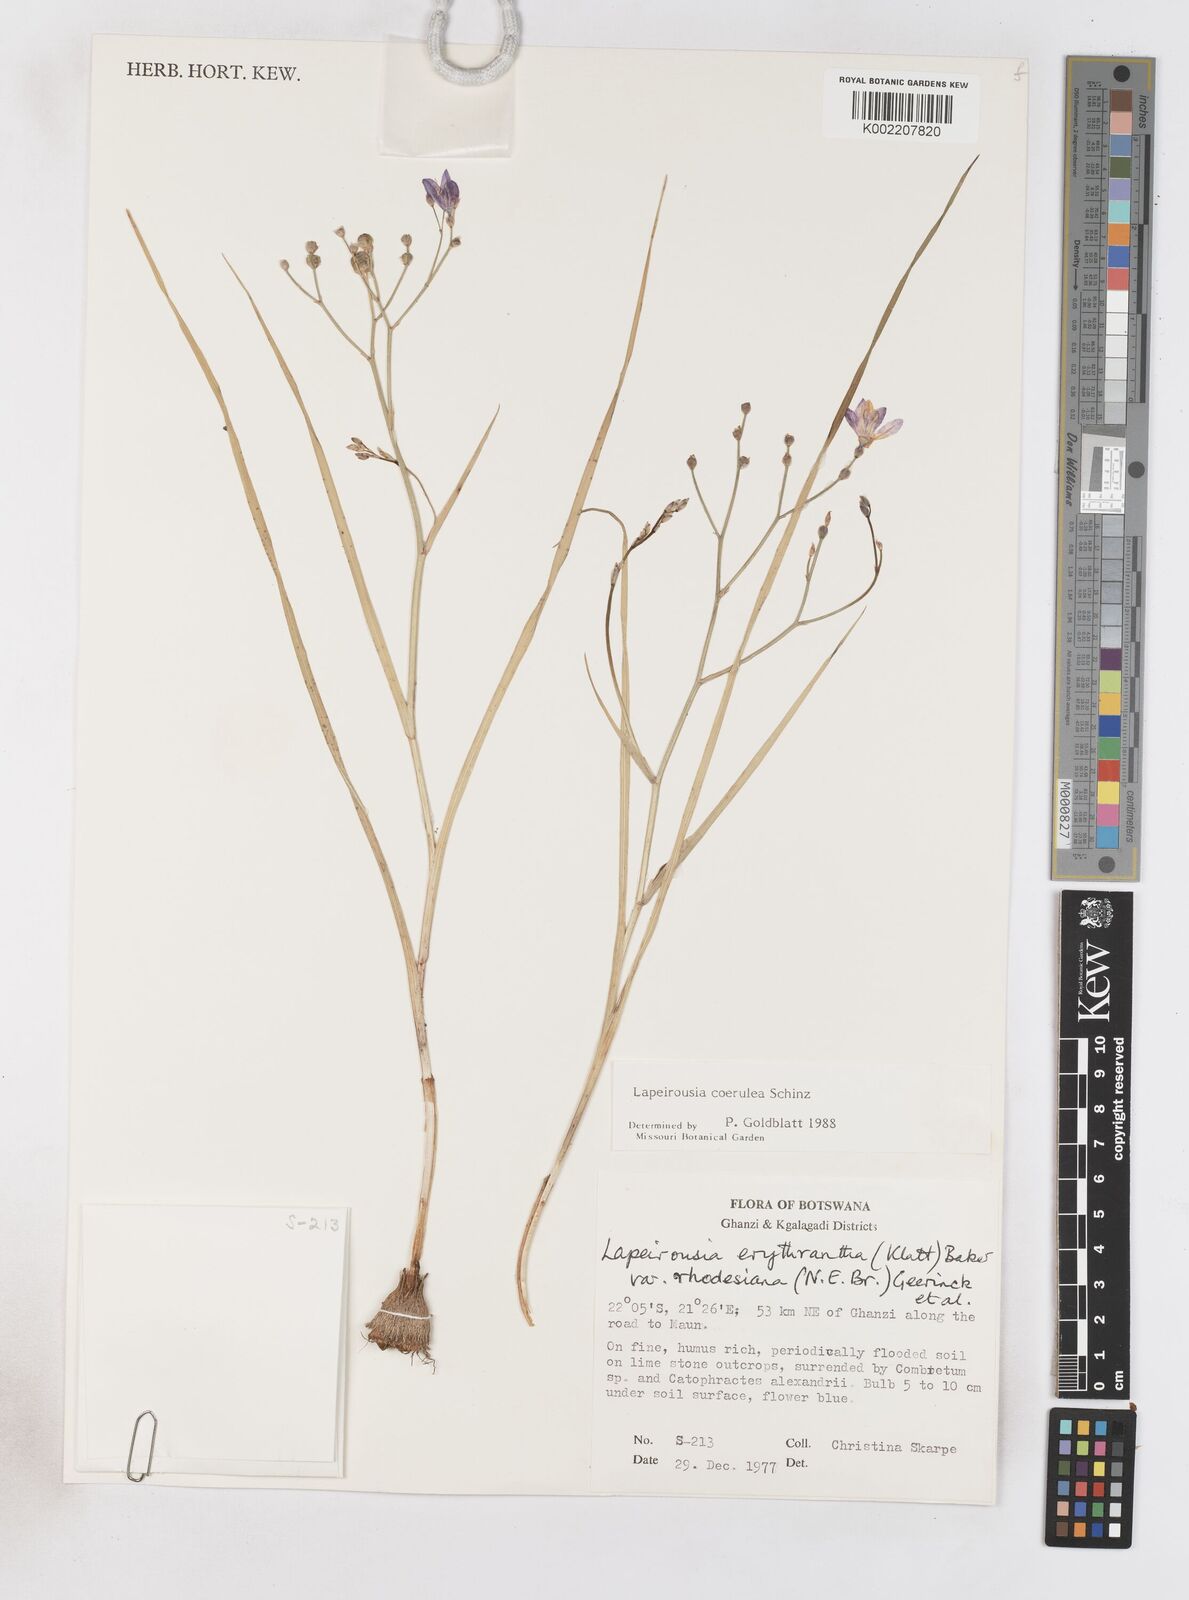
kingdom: Plantae
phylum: Tracheophyta
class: Liliopsida
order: Asparagales
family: Iridaceae
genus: Afrosolen
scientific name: Afrosolen coeruleus
